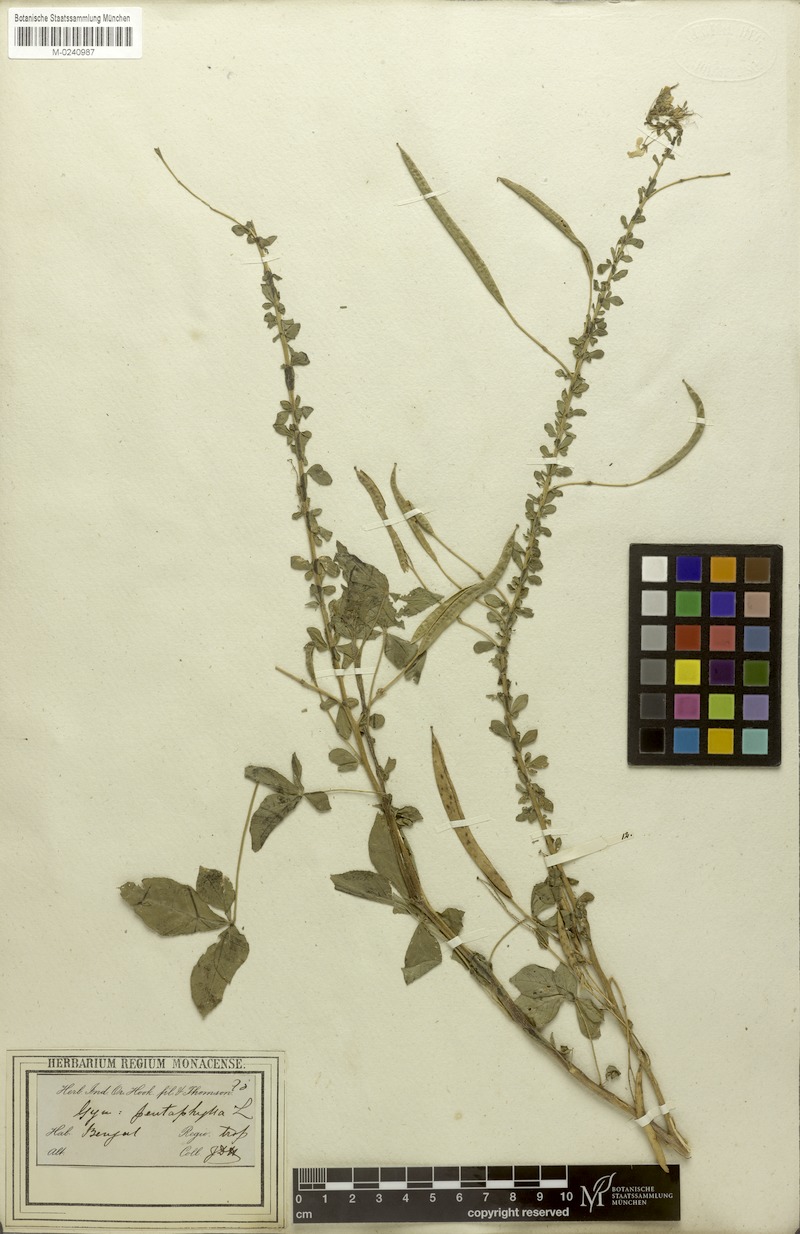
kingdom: Plantae
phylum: Tracheophyta
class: Magnoliopsida
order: Brassicales
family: Cleomaceae
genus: Gynandropsis
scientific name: Gynandropsis gynandra
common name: Spiderwisp
